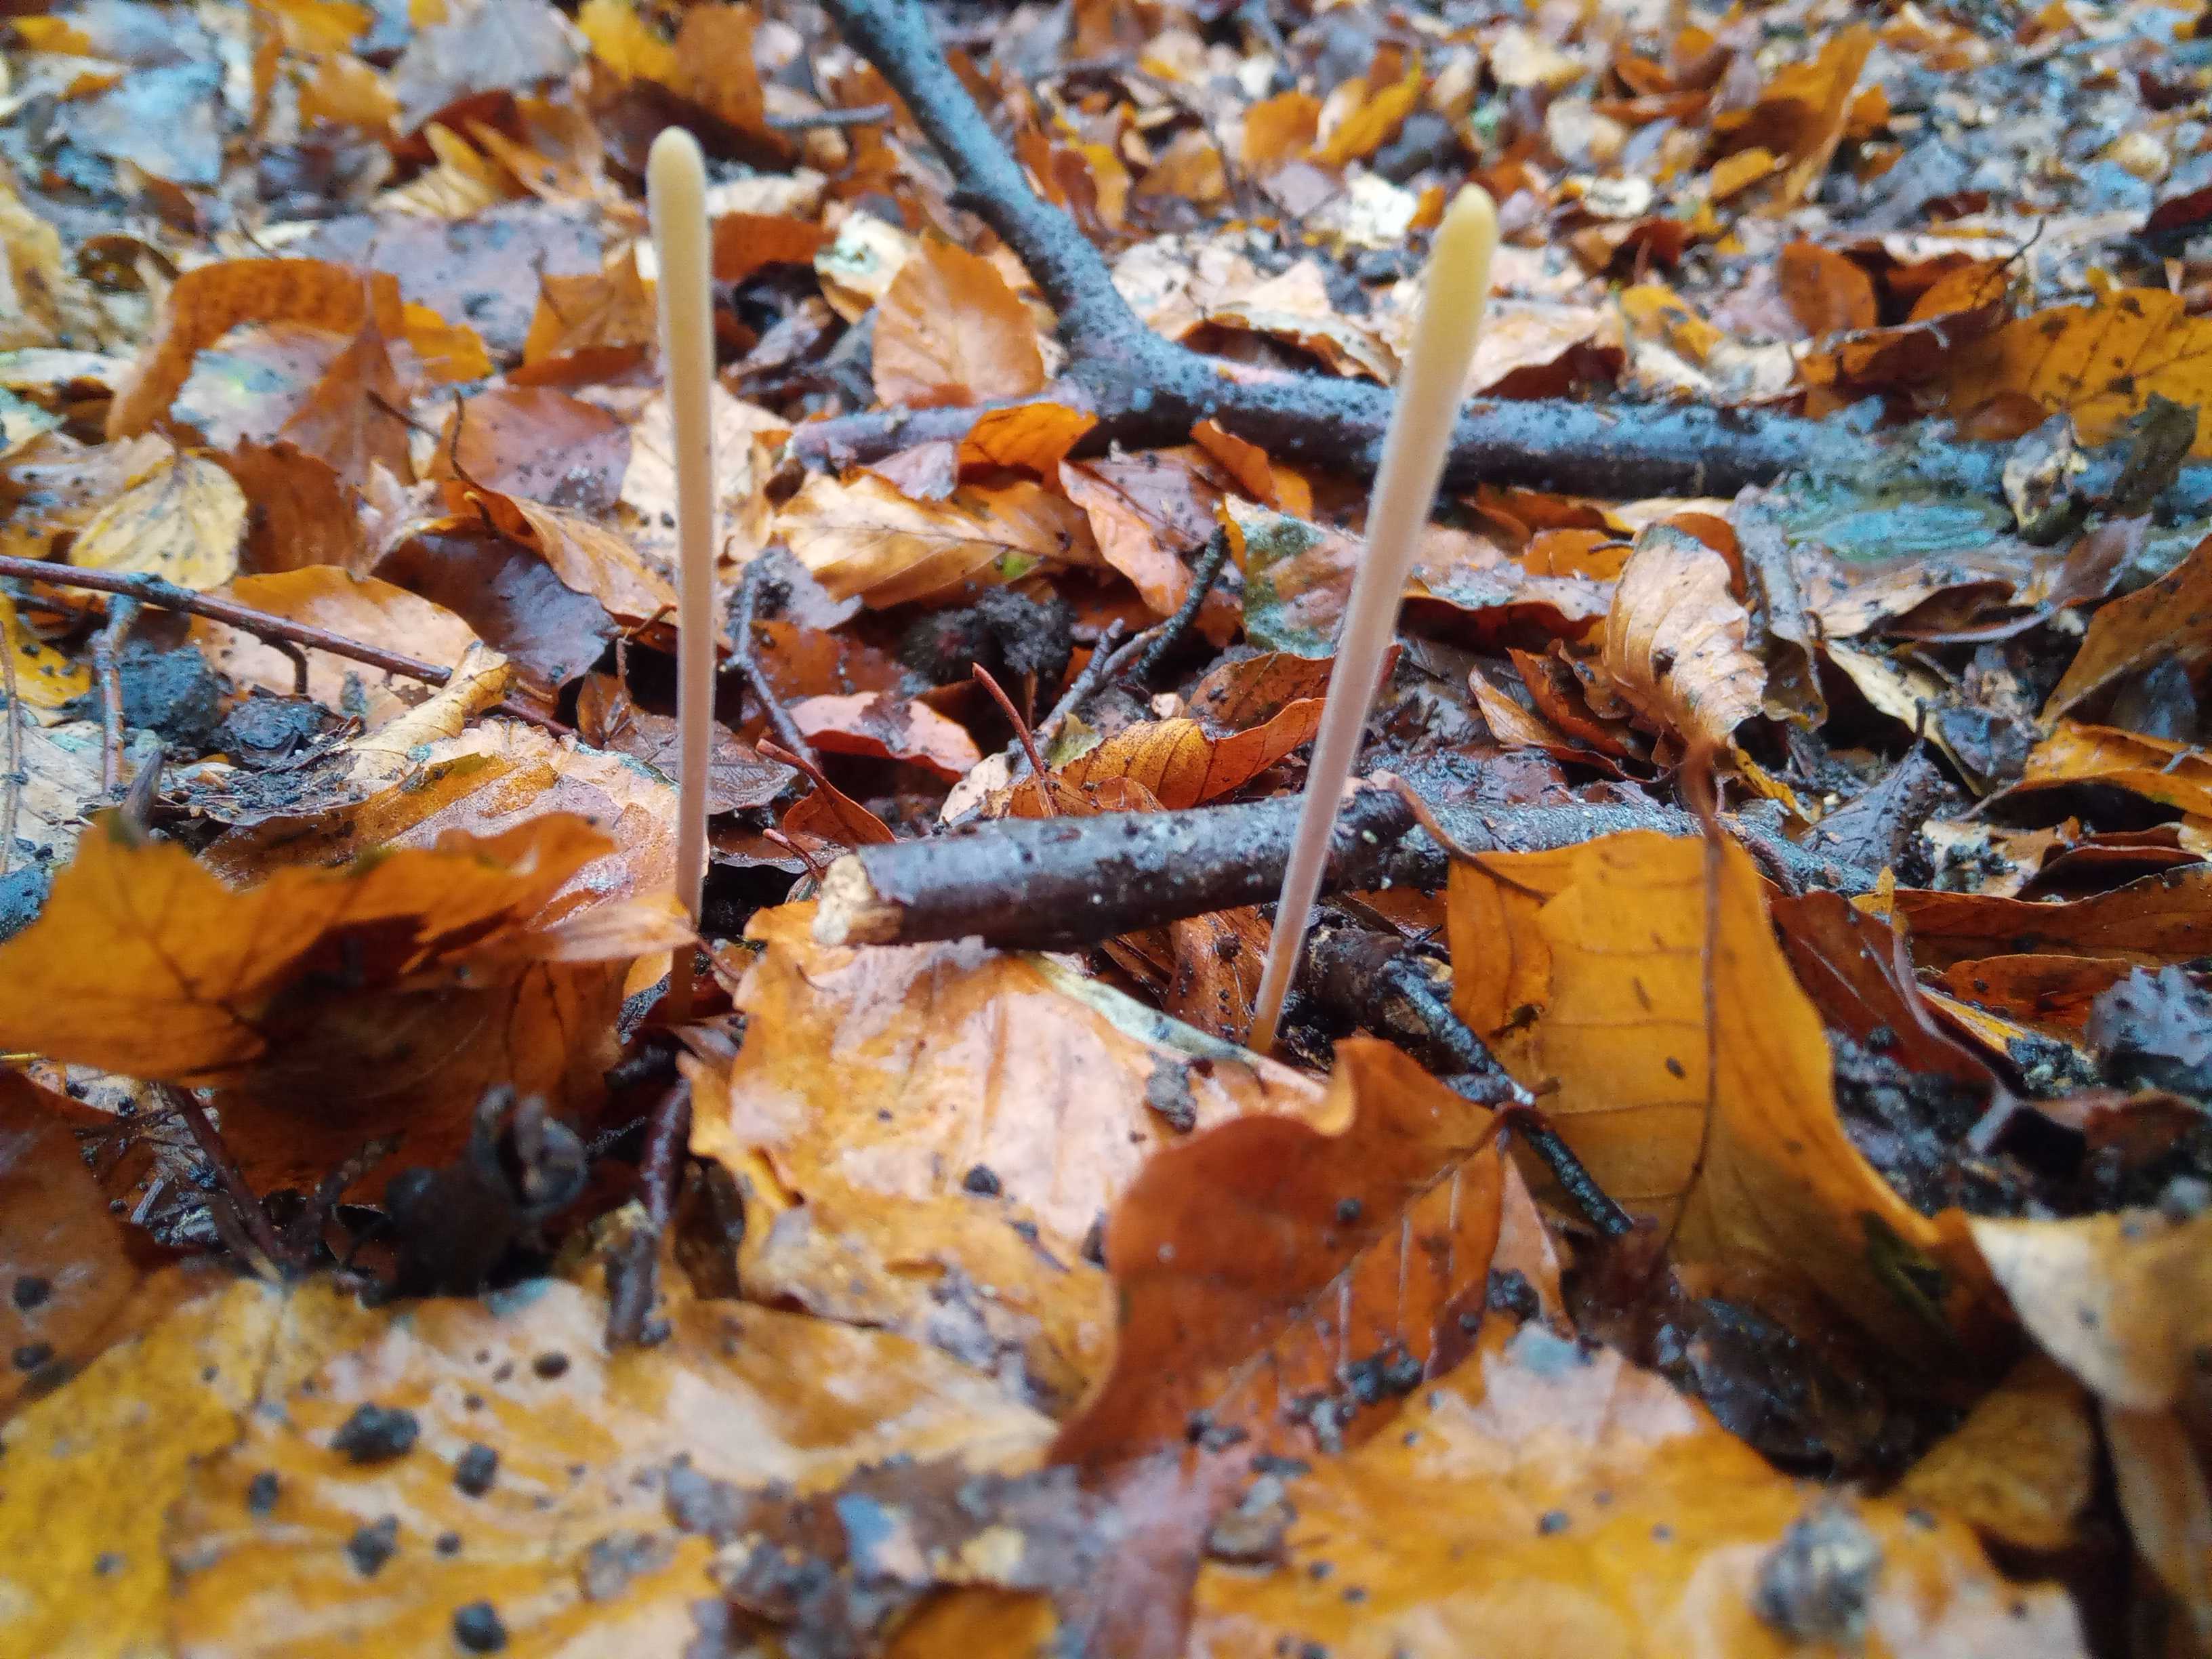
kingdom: Fungi
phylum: Basidiomycota
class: Agaricomycetes
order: Agaricales
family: Typhulaceae
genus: Typhula
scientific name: Typhula fistulosa
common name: pibet rørkølle
